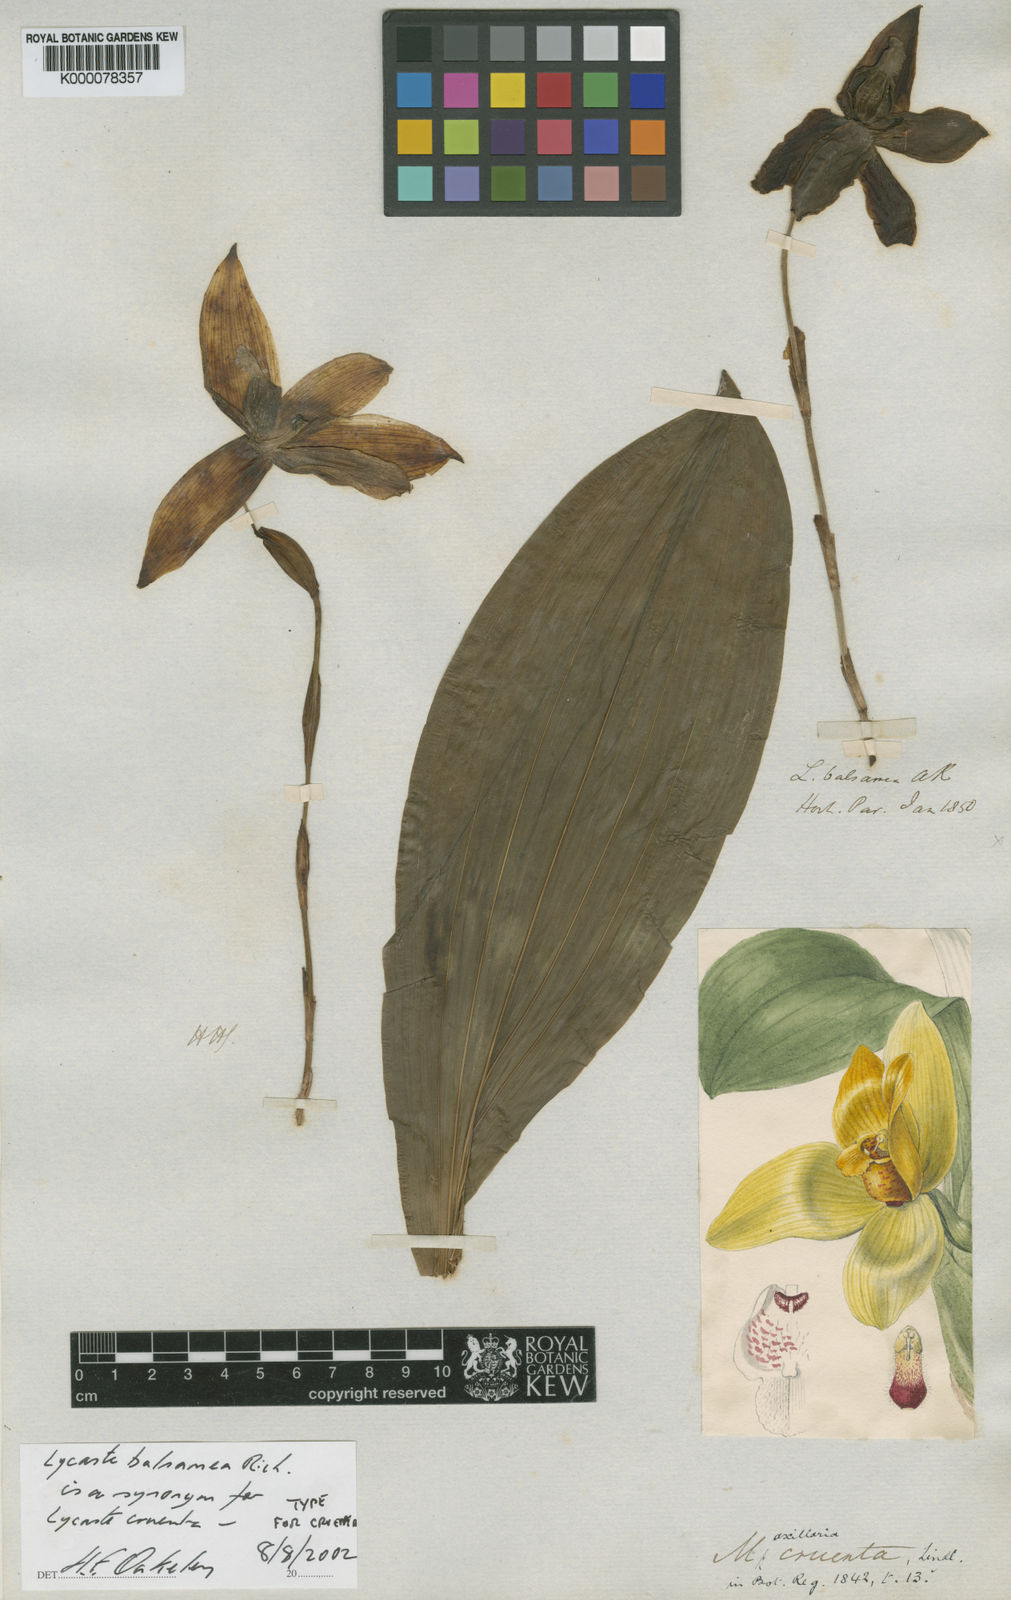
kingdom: Plantae
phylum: Tracheophyta
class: Liliopsida
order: Asparagales
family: Orchidaceae
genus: Lycaste
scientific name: Lycaste cruenta
